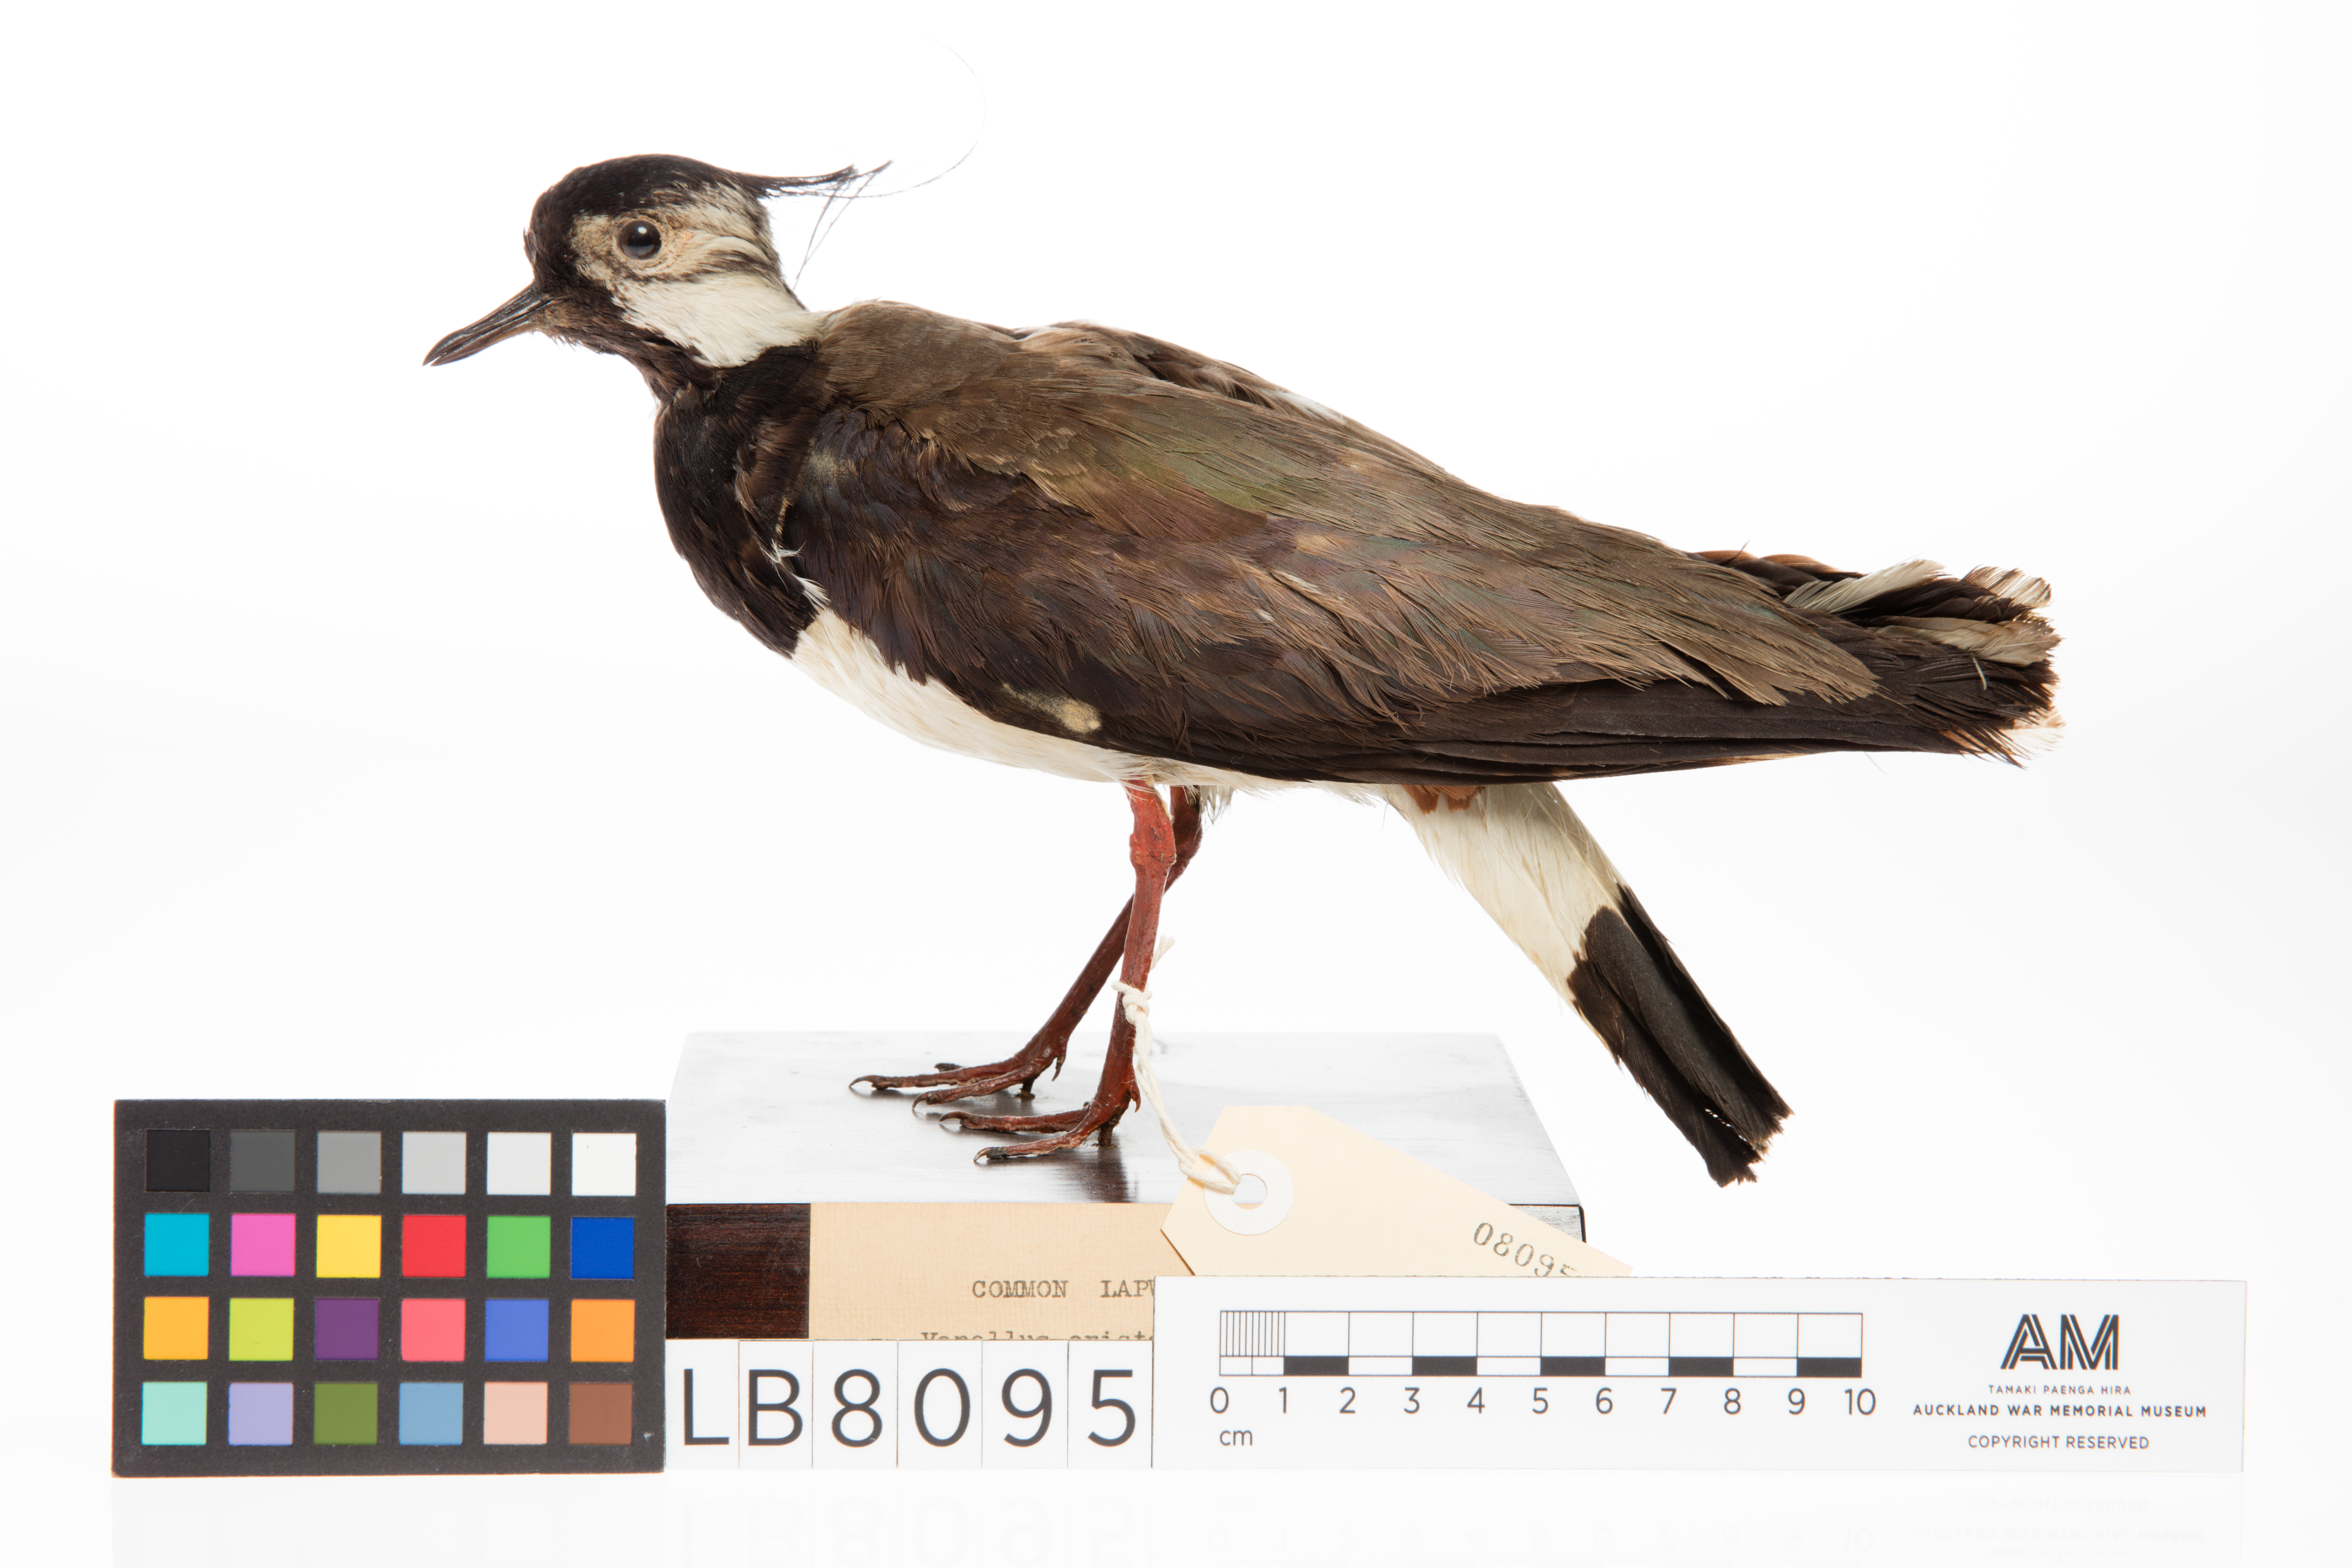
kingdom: Animalia
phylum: Chordata
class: Aves
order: Charadriiformes
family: Charadriidae
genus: Vanellus
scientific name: Vanellus vanellus
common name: Northern lapwing
